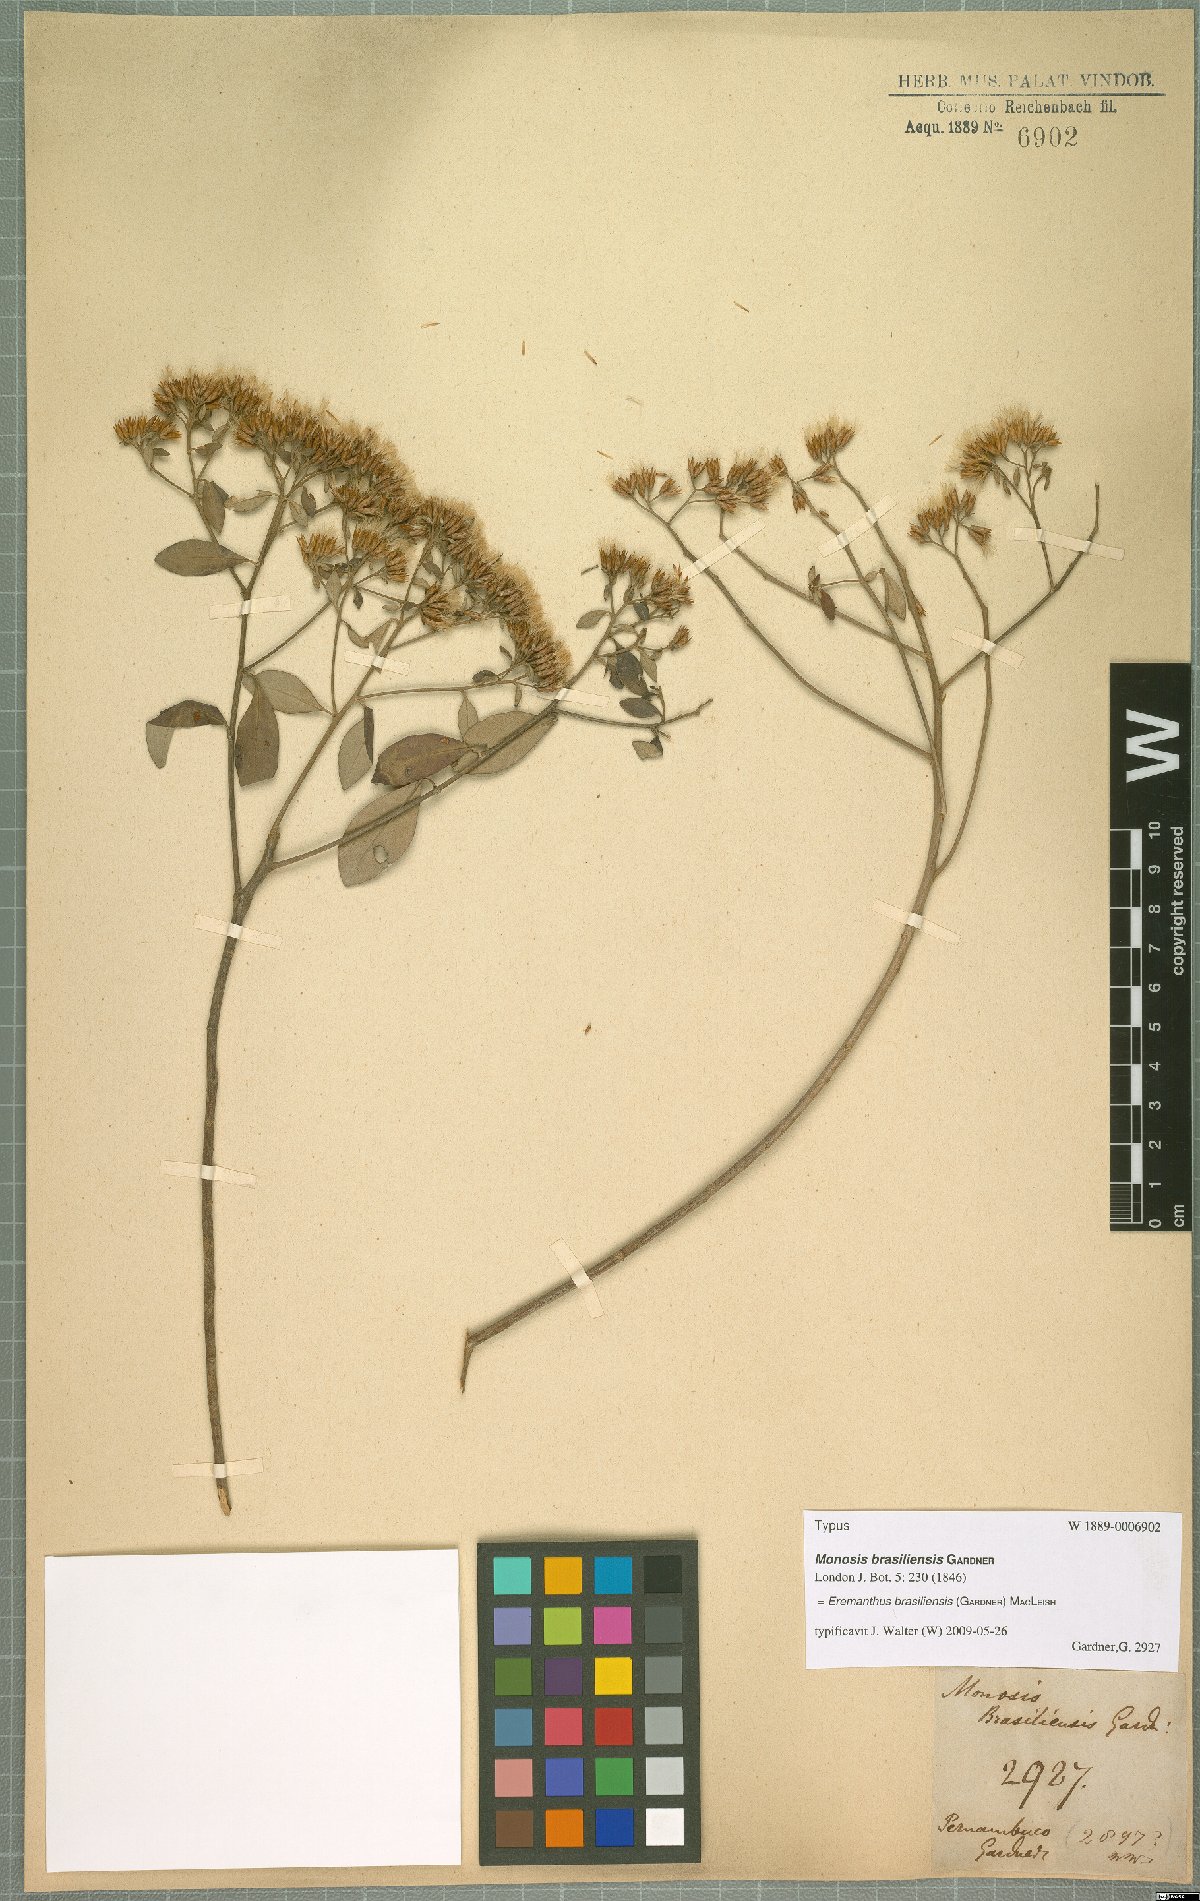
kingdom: Plantae
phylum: Tracheophyta
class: Magnoliopsida
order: Asterales
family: Asteraceae
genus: Eremanthus
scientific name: Eremanthus brasiliensis
